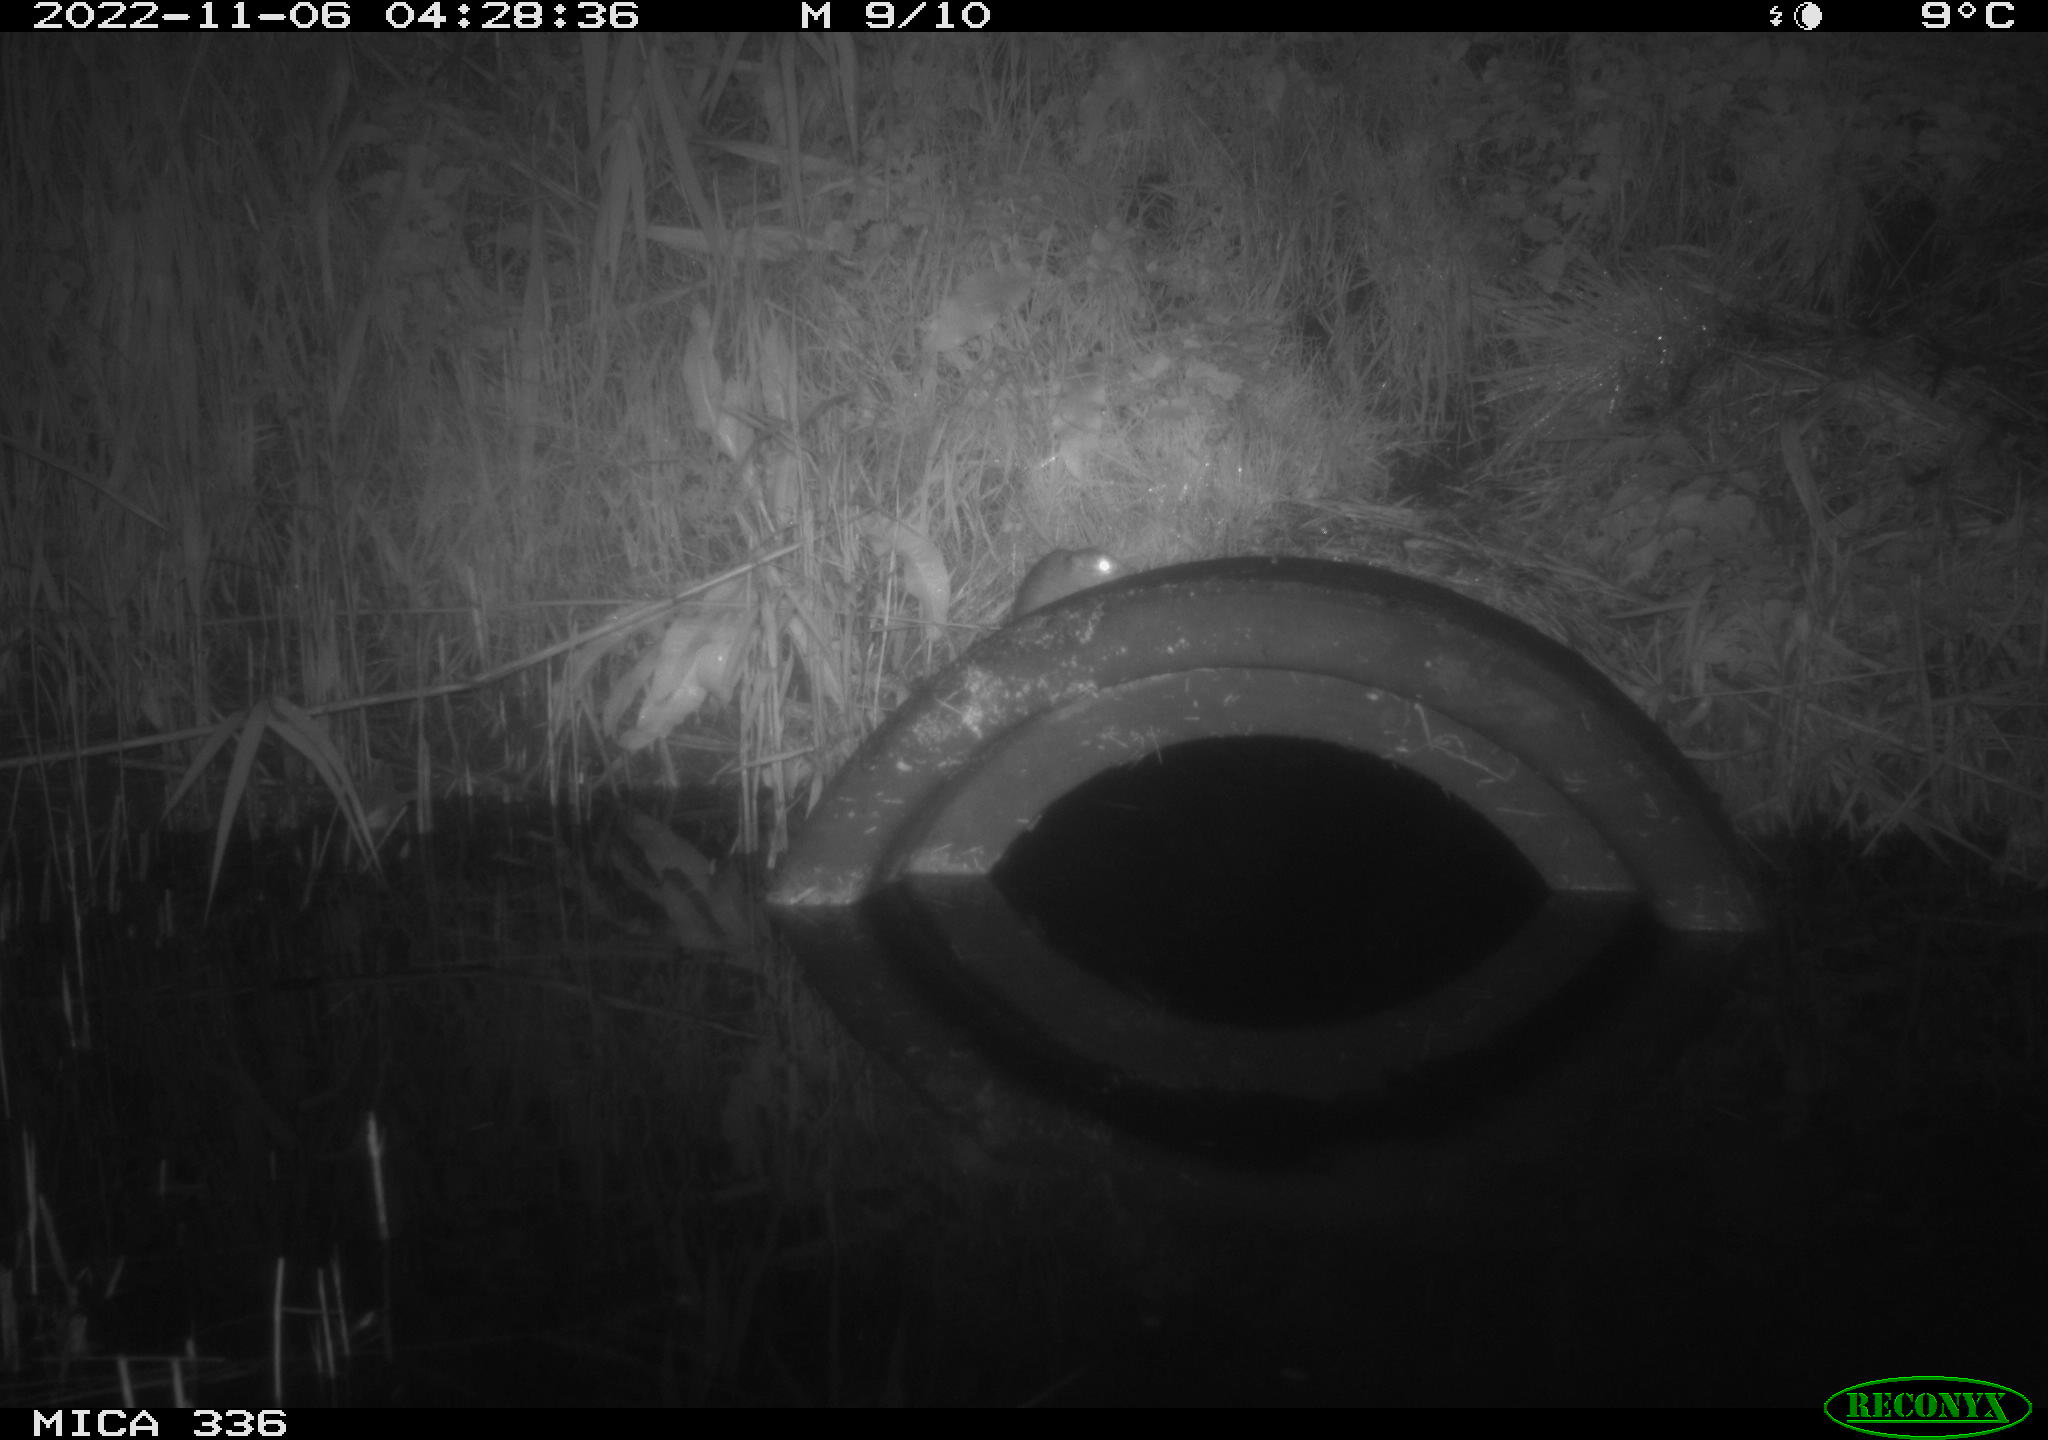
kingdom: Animalia
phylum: Chordata
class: Mammalia
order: Rodentia
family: Muridae
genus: Rattus
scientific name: Rattus norvegicus
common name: Brown rat
